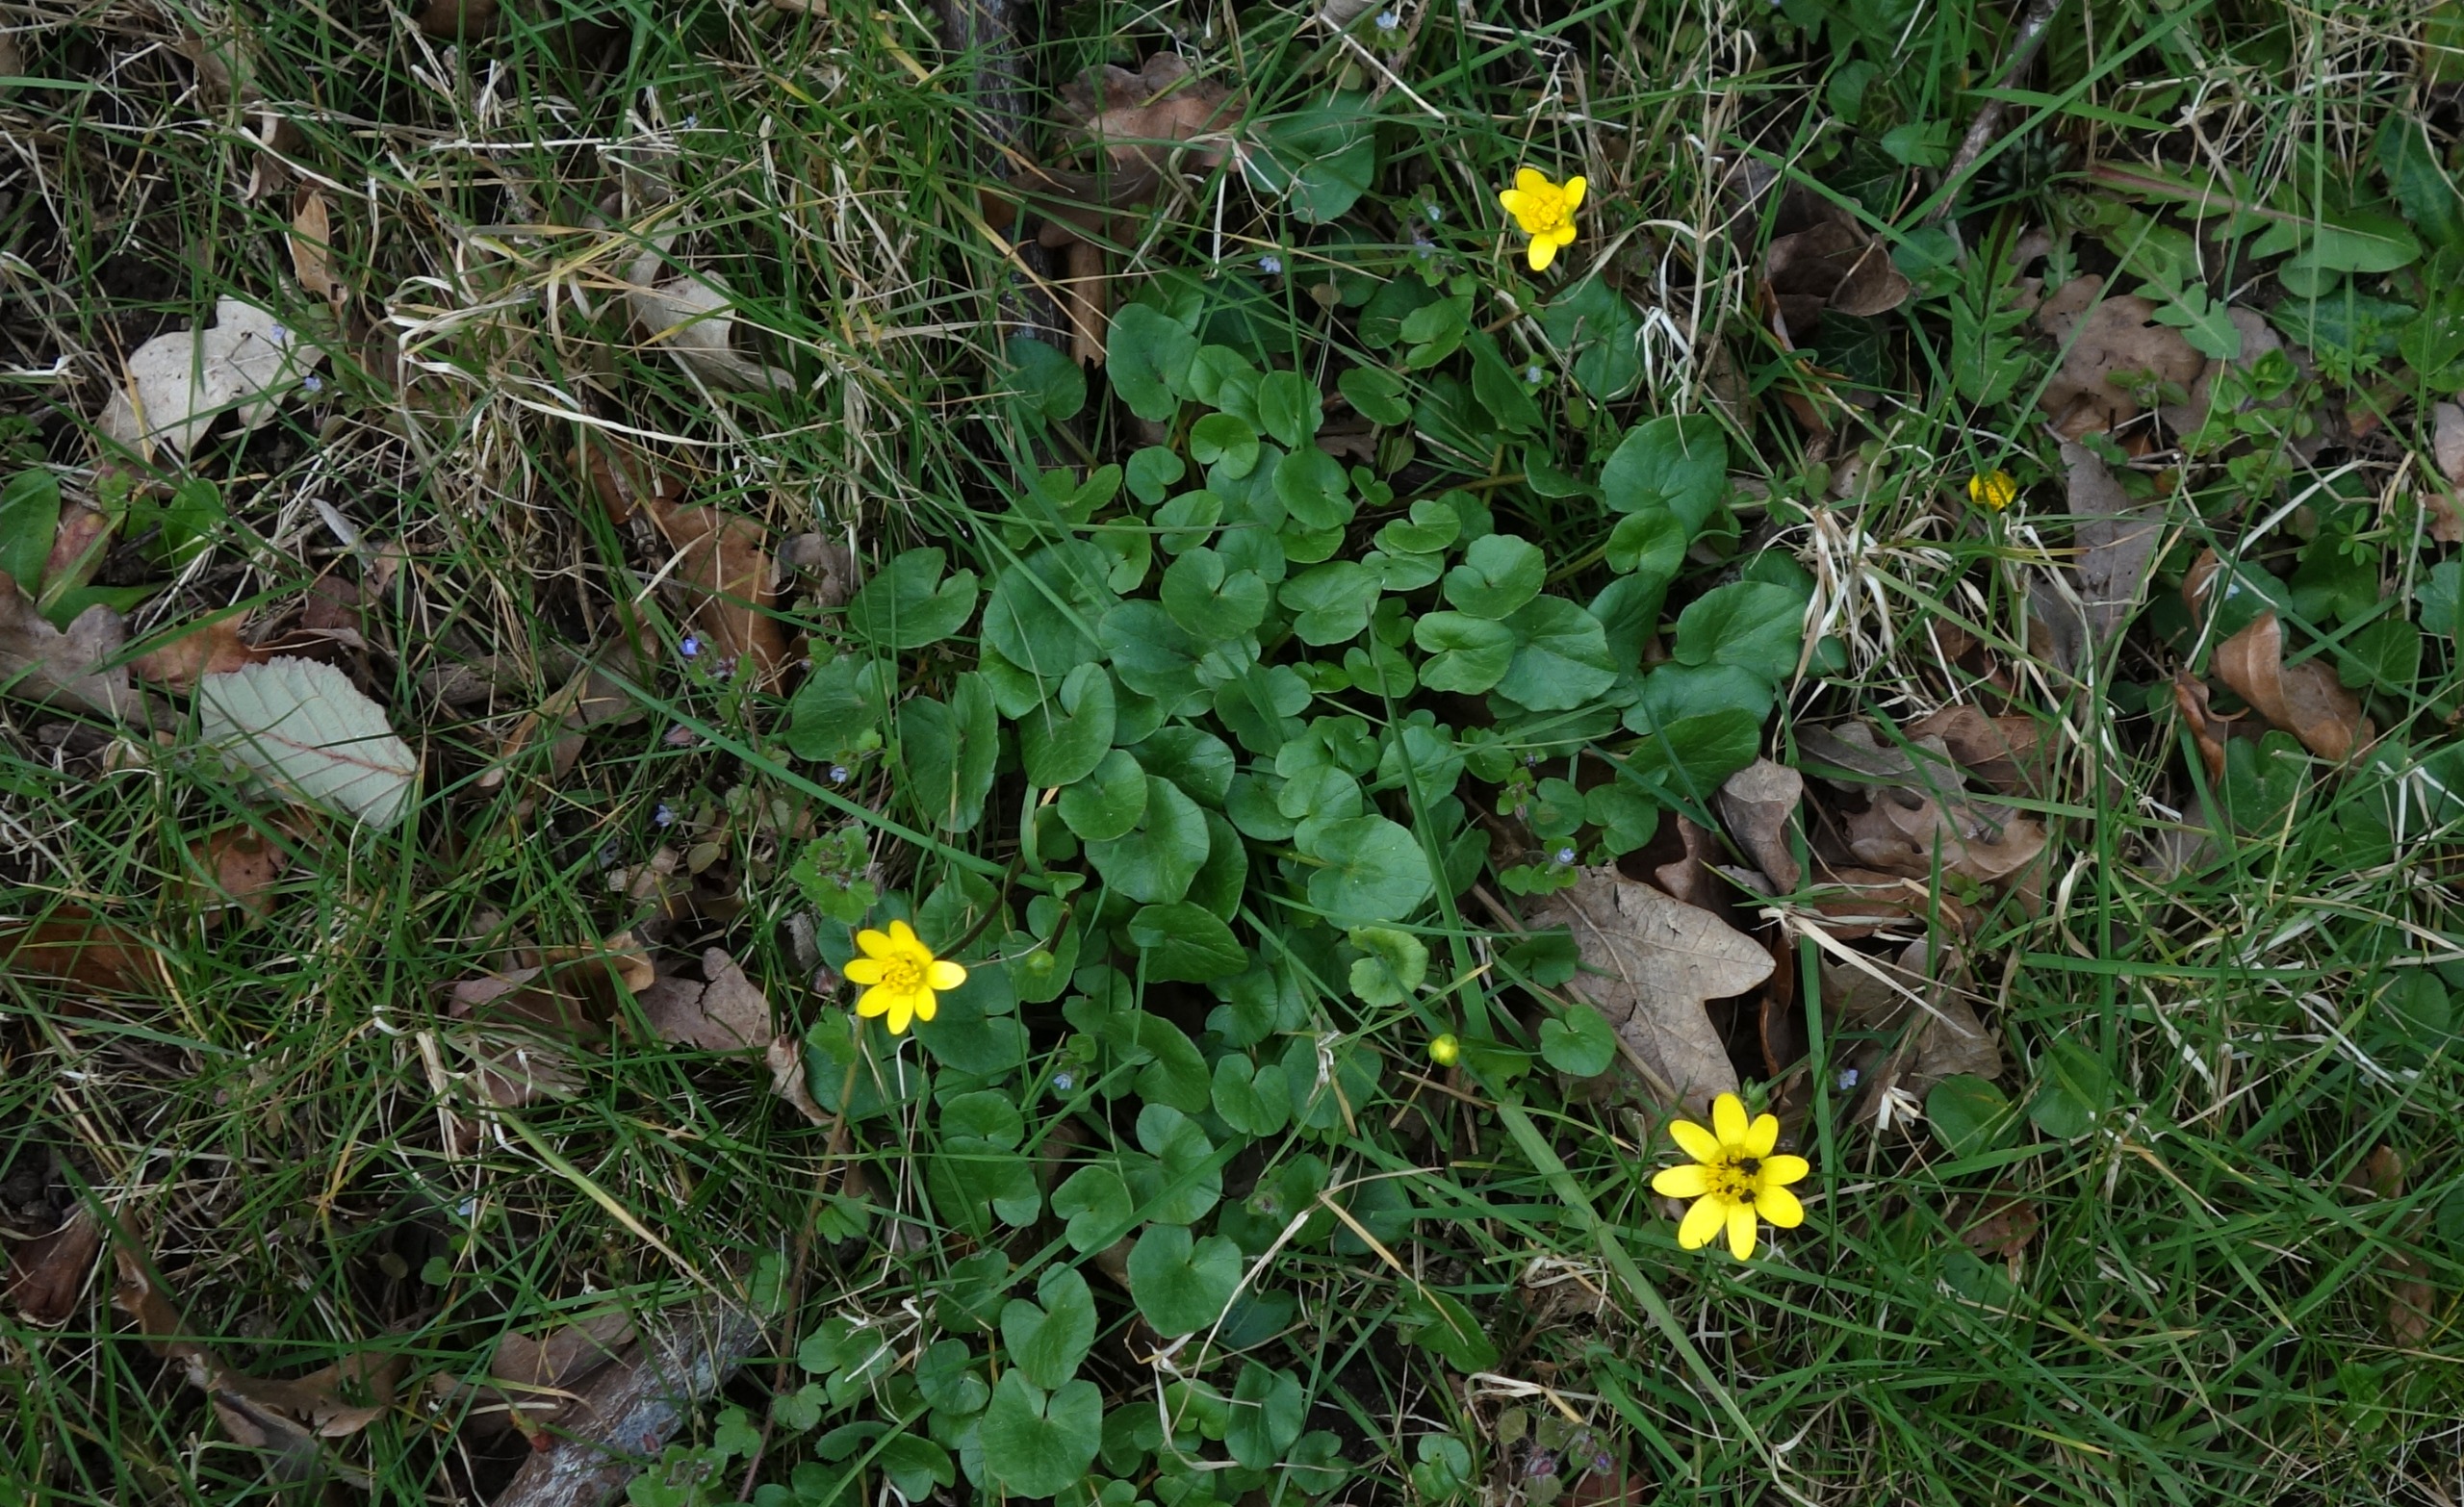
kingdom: Plantae
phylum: Tracheophyta
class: Magnoliopsida
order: Ranunculales
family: Ranunculaceae
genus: Ficaria
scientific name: Ficaria verna
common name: Vorterod
